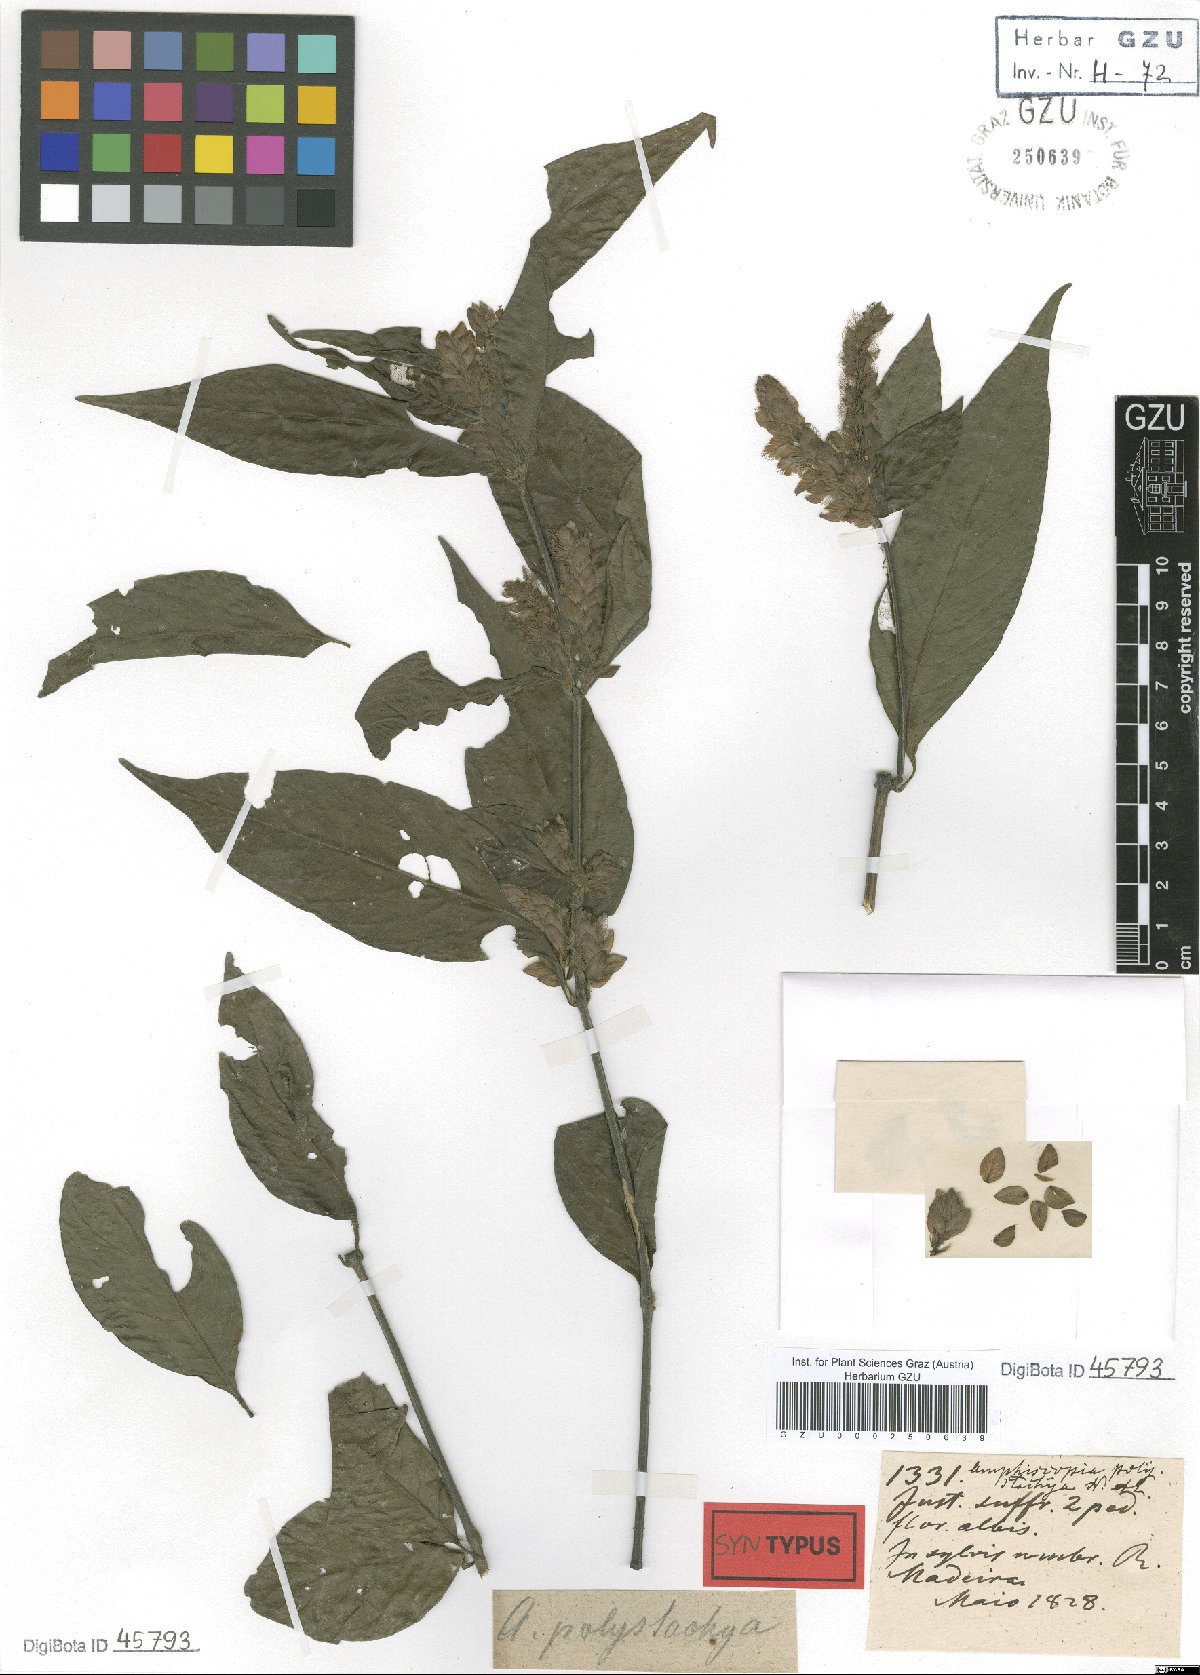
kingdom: Plantae
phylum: Tracheophyta
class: Magnoliopsida
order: Lamiales
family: Acanthaceae
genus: Justicia
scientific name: Justicia polystachya
